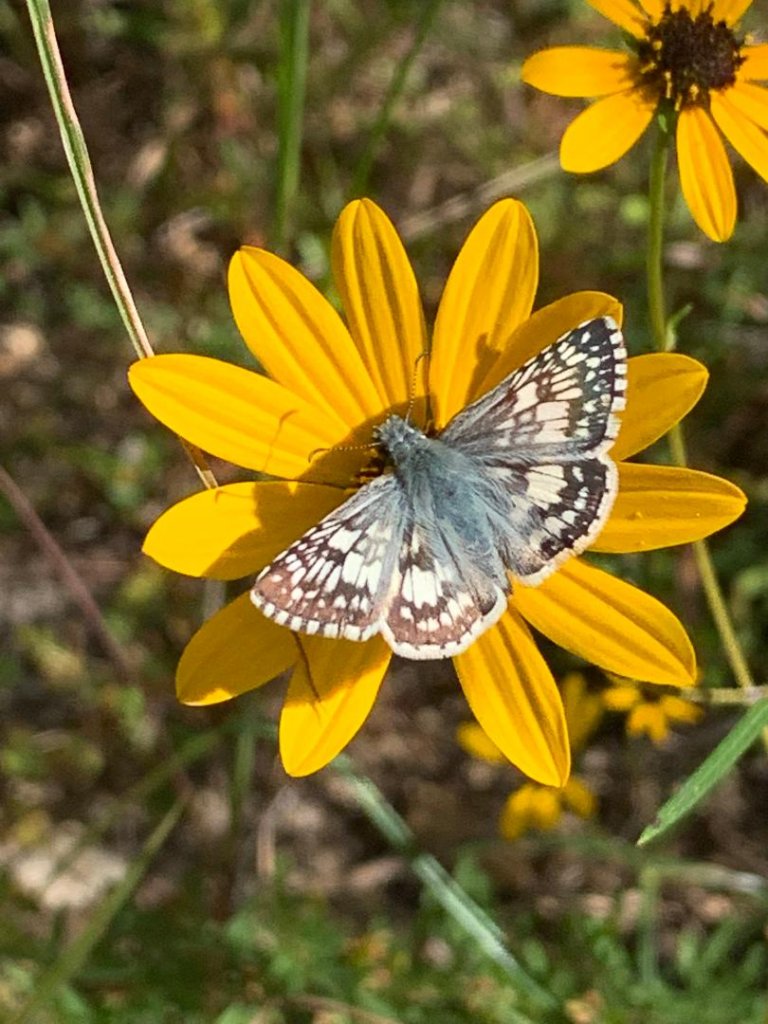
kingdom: Animalia
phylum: Arthropoda
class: Insecta
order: Lepidoptera
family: Hesperiidae
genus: Pyrgus
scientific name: Pyrgus communis
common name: Common Checkered-Skipper
